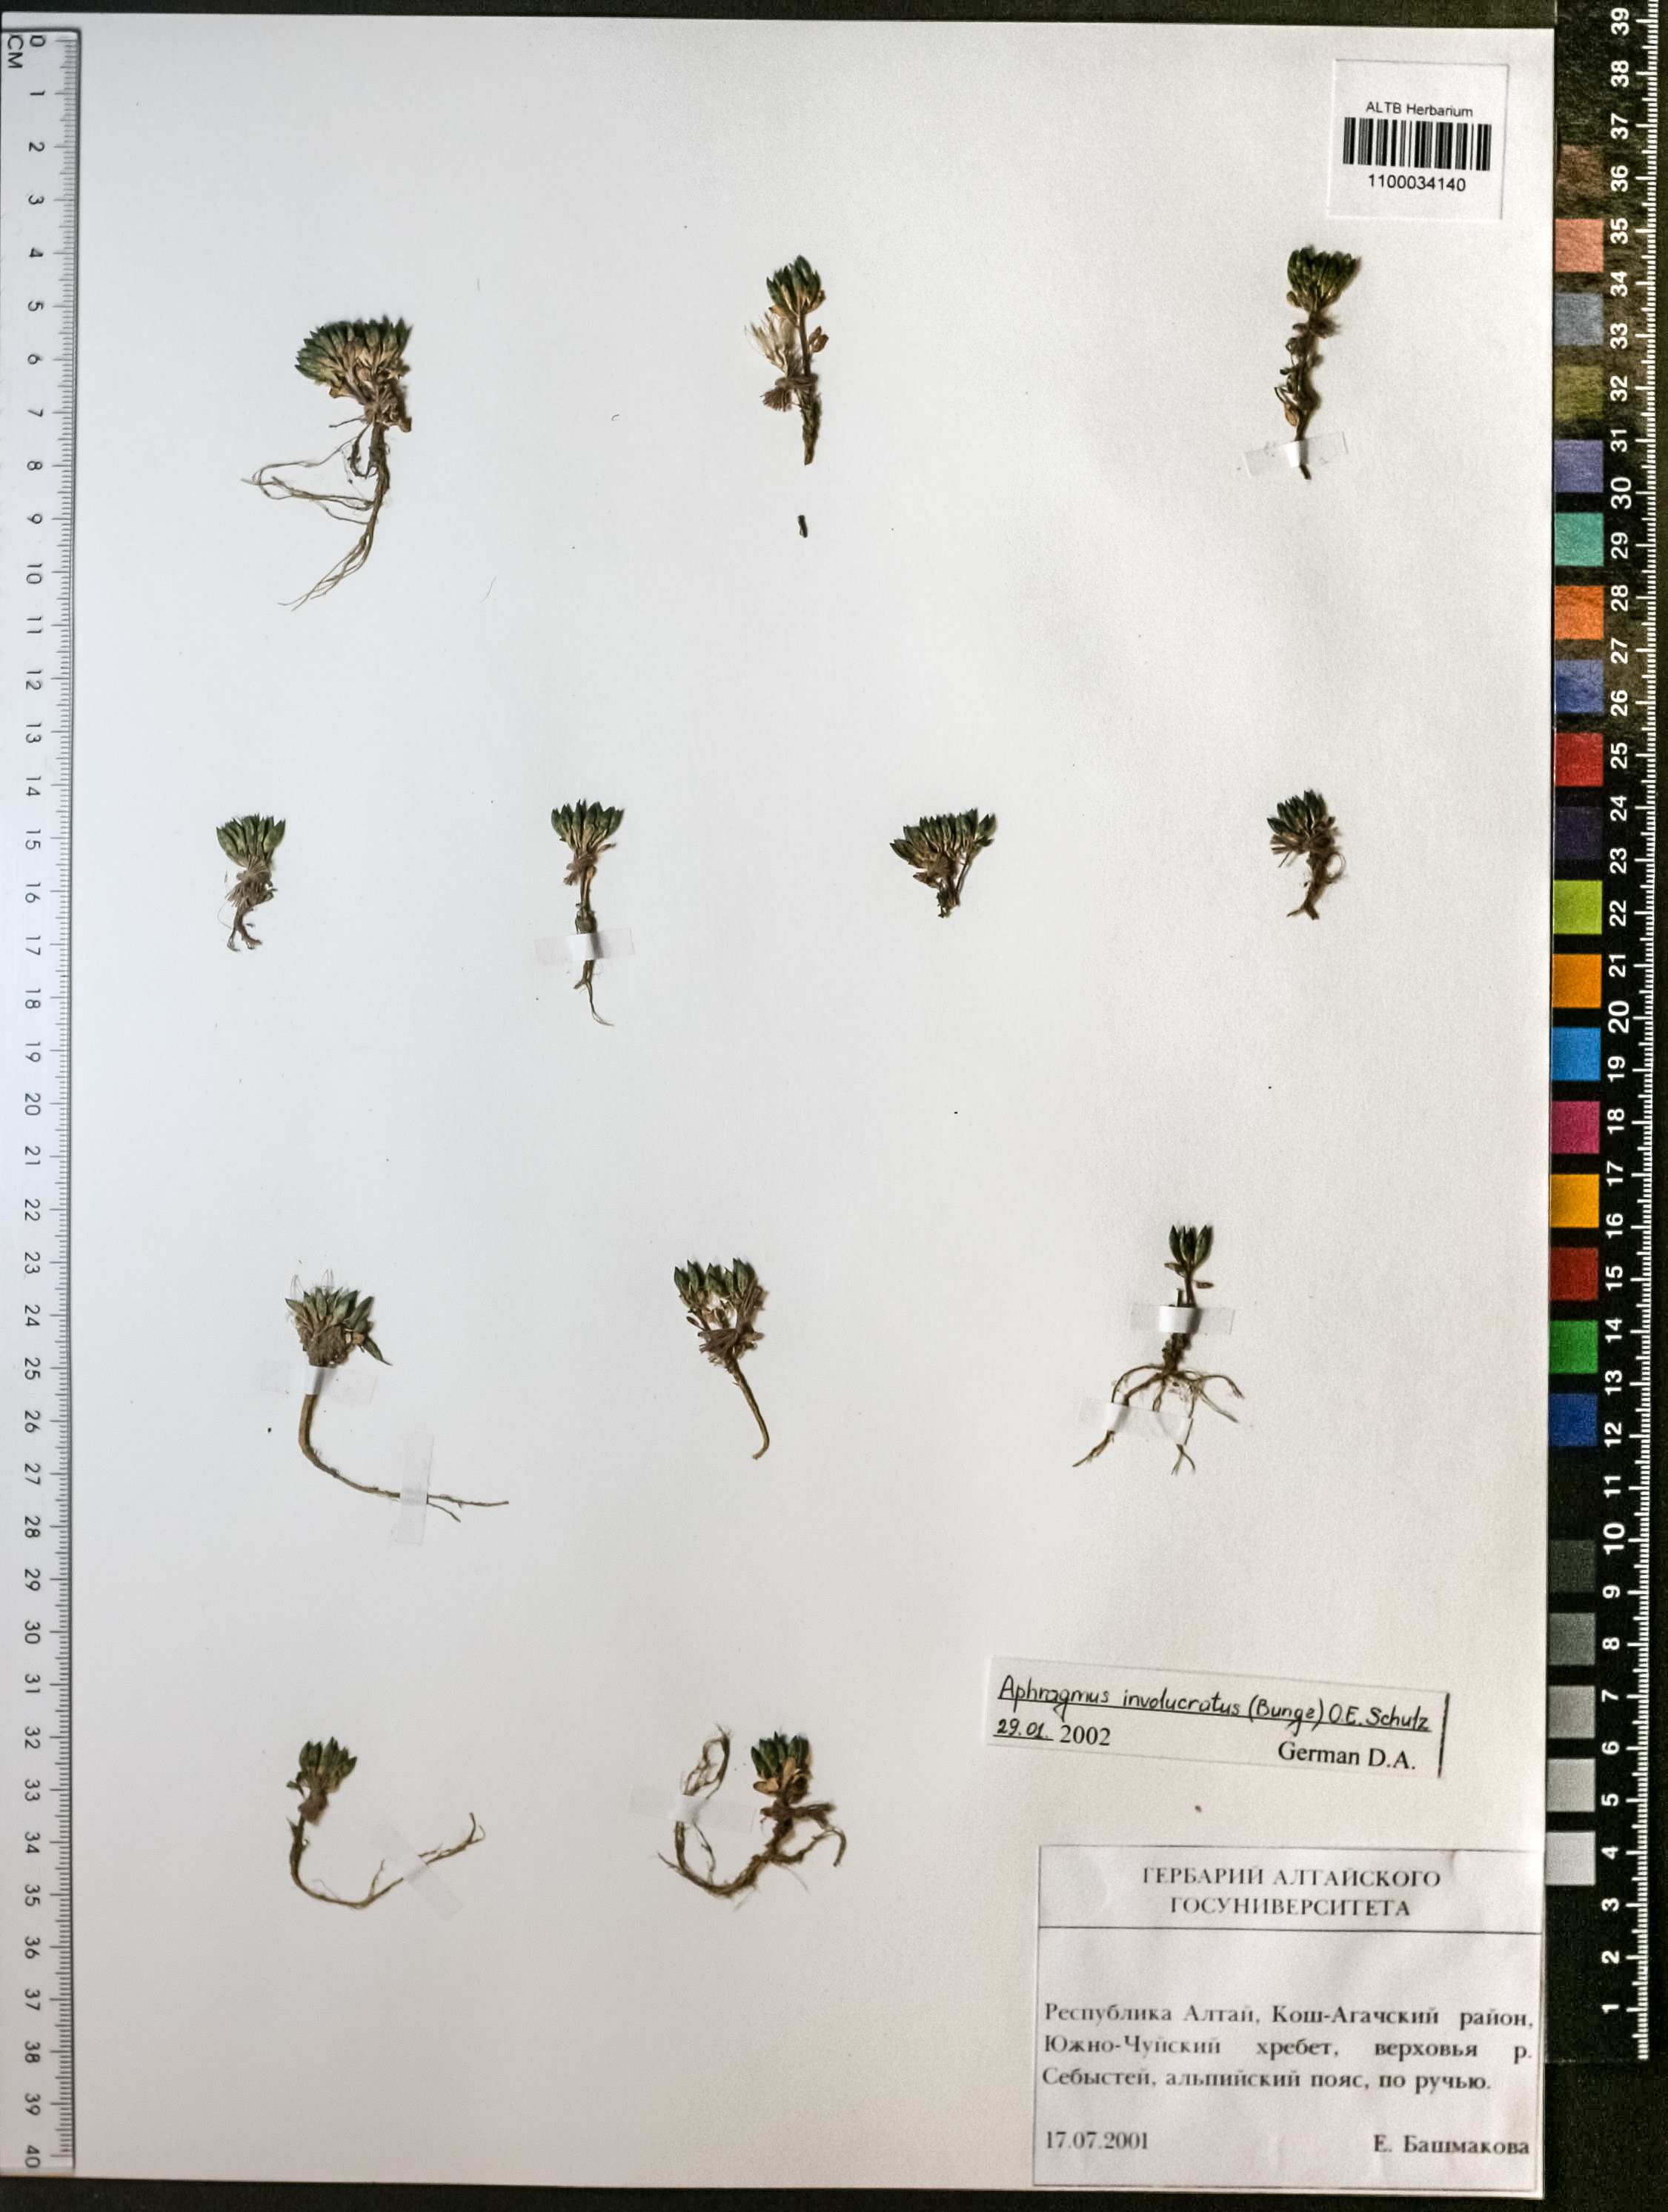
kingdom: Plantae
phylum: Tracheophyta
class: Magnoliopsida
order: Brassicales
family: Brassicaceae
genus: Aphragmus
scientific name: Aphragmus involucratus
